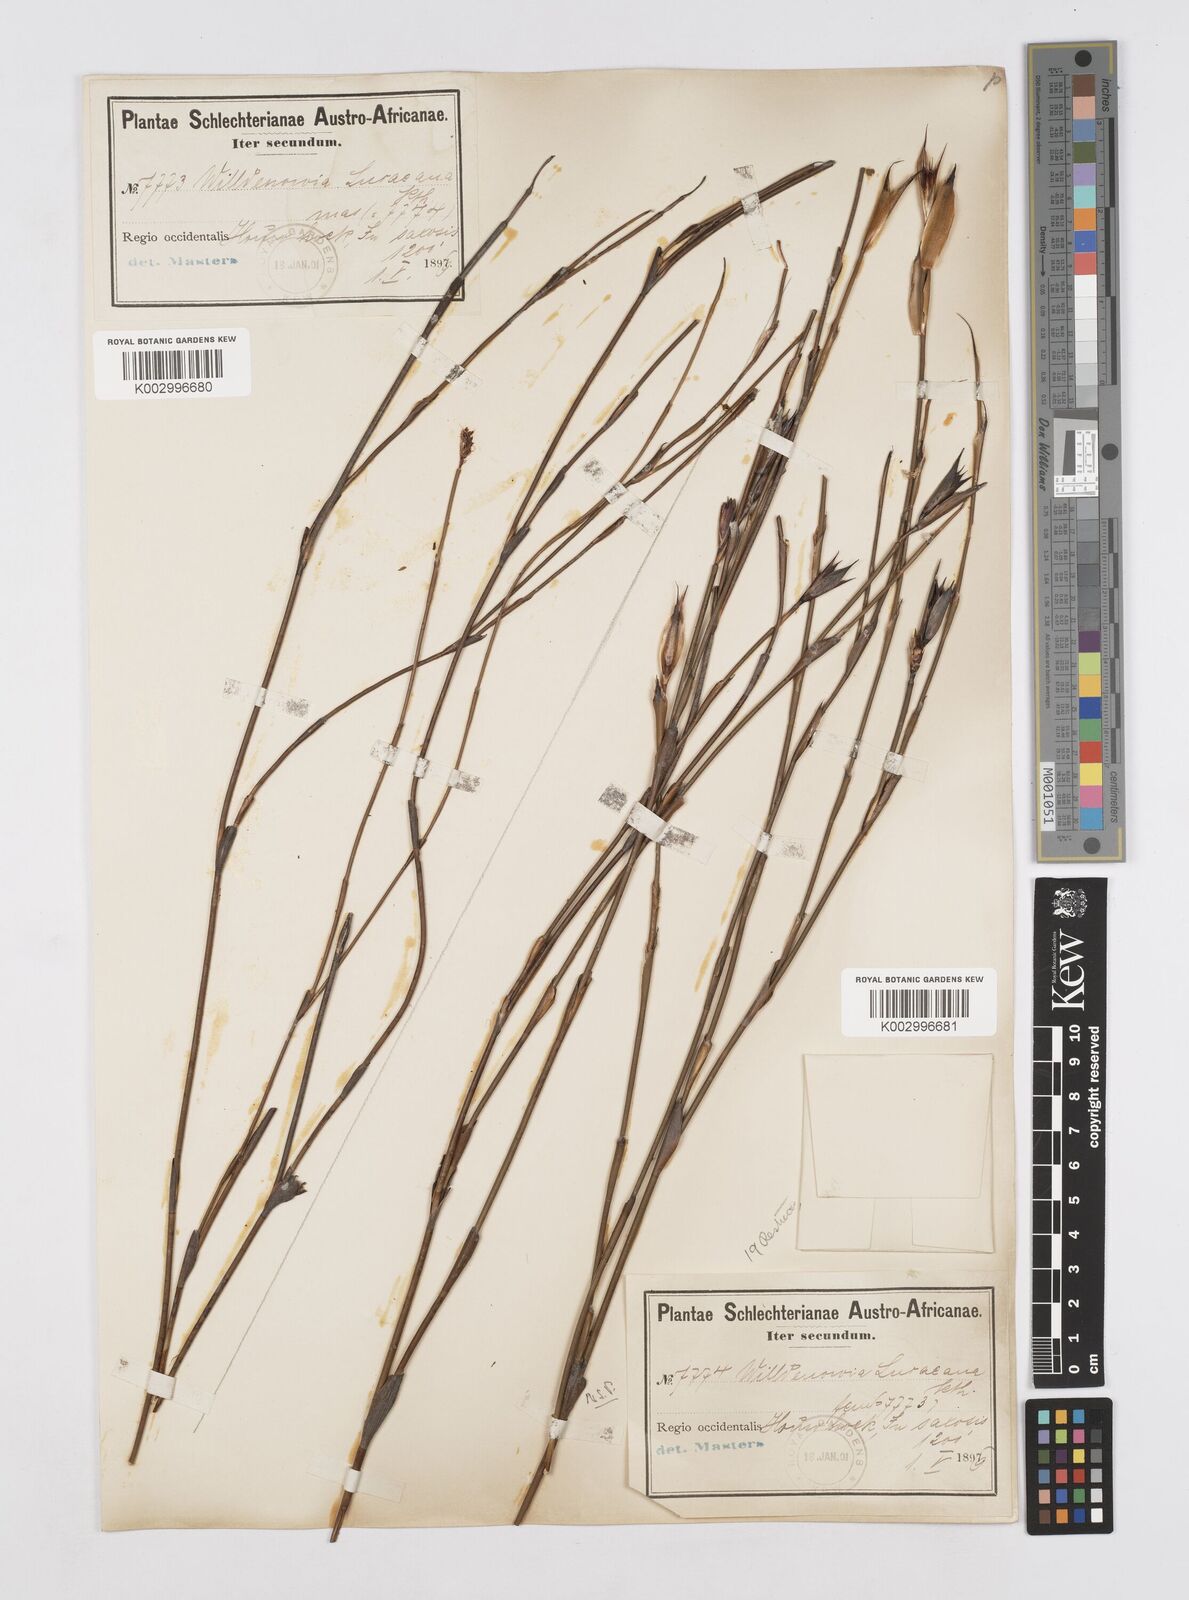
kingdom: Plantae
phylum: Tracheophyta
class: Liliopsida
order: Poales
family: Restionaceae
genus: Willdenowia
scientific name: Willdenowia glomerata
